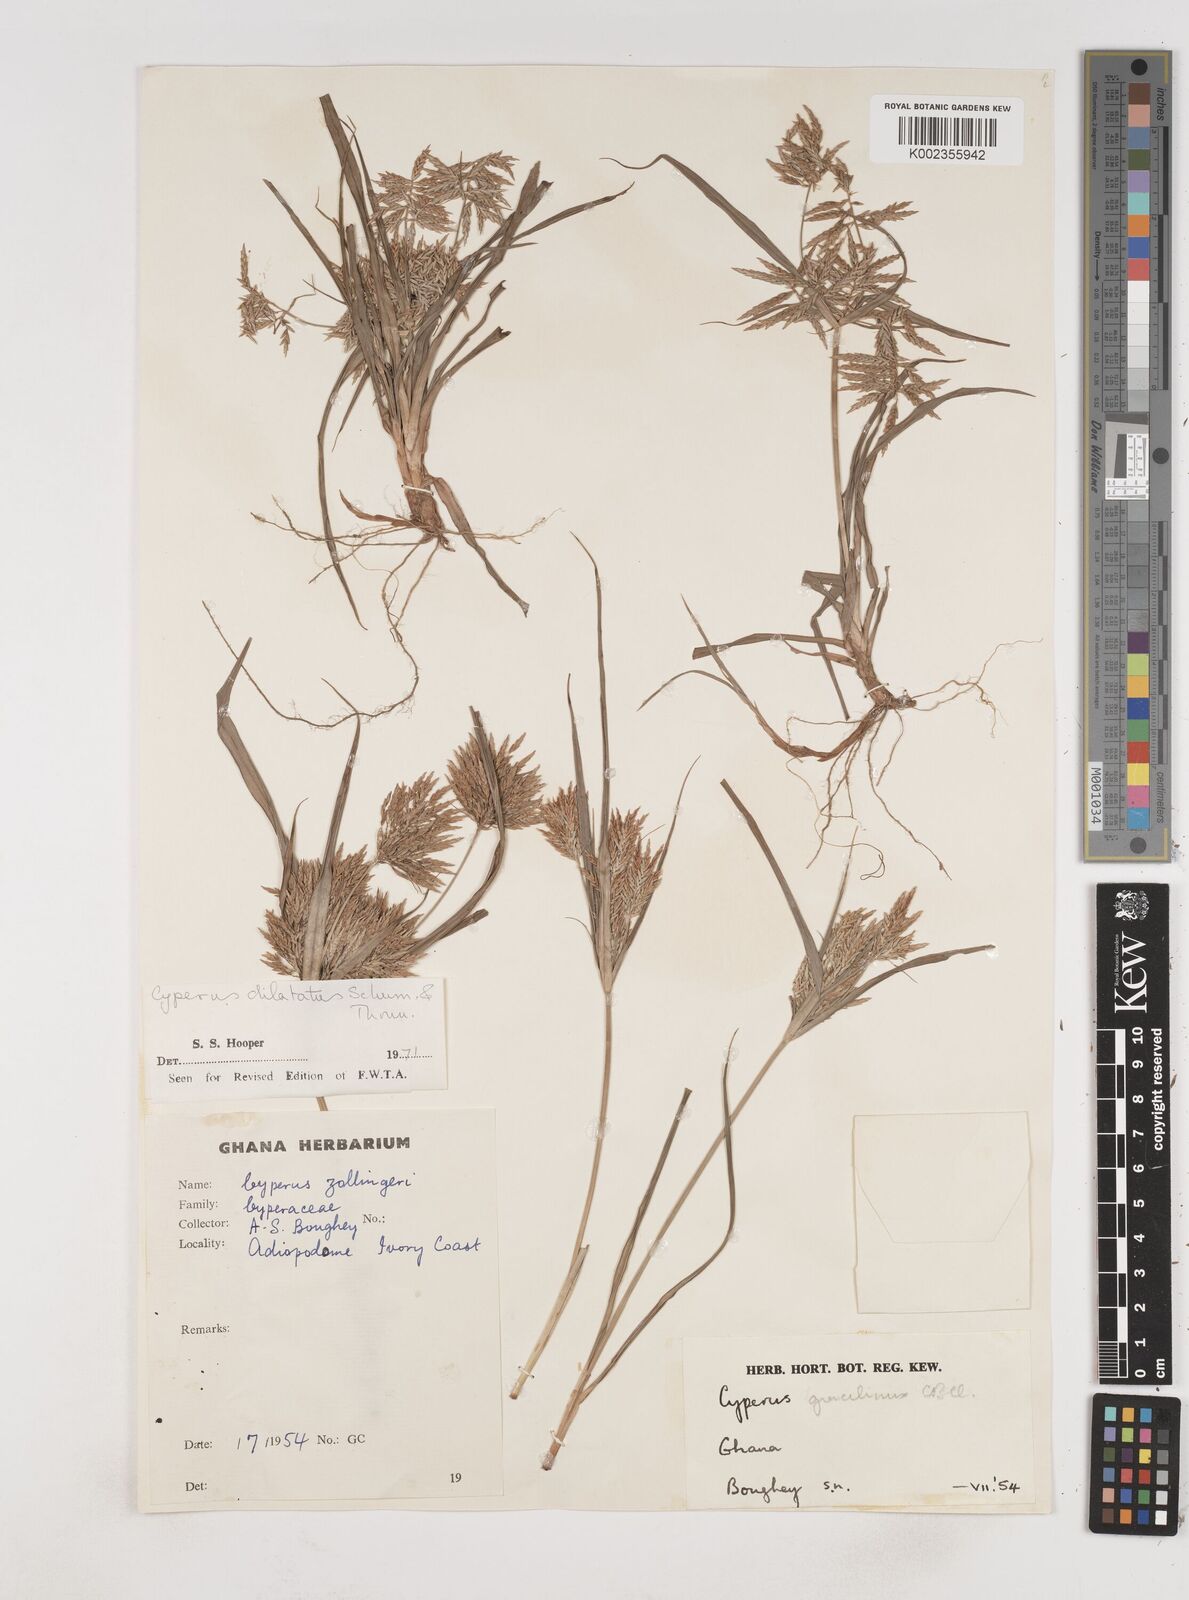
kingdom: Plantae
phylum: Tracheophyta
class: Liliopsida
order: Poales
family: Cyperaceae
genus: Cyperus
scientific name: Cyperus dilatatus
